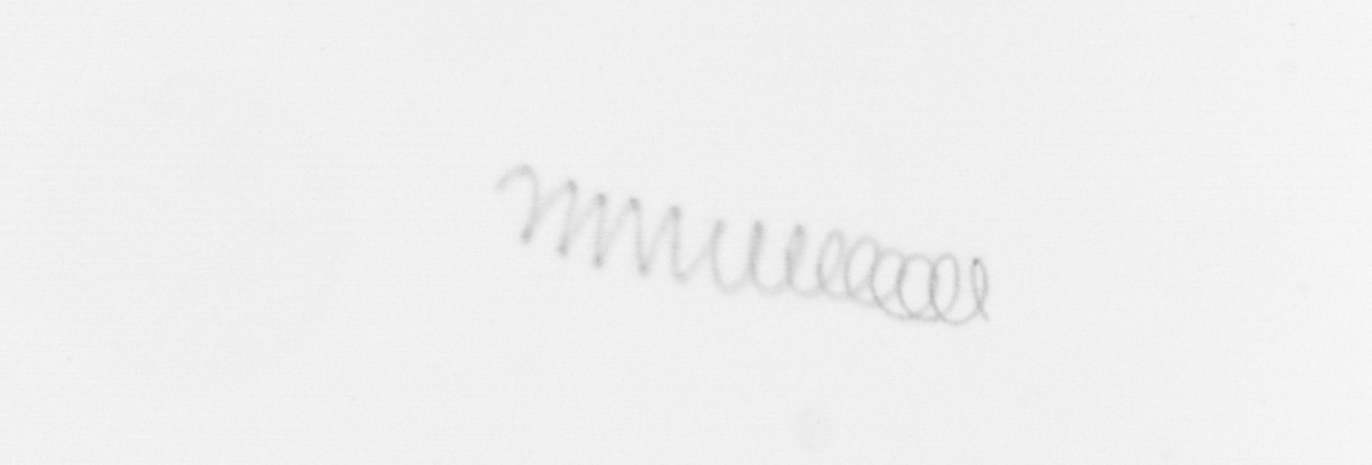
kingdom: Chromista
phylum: Ochrophyta
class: Bacillariophyceae
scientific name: Bacillariophyceae
